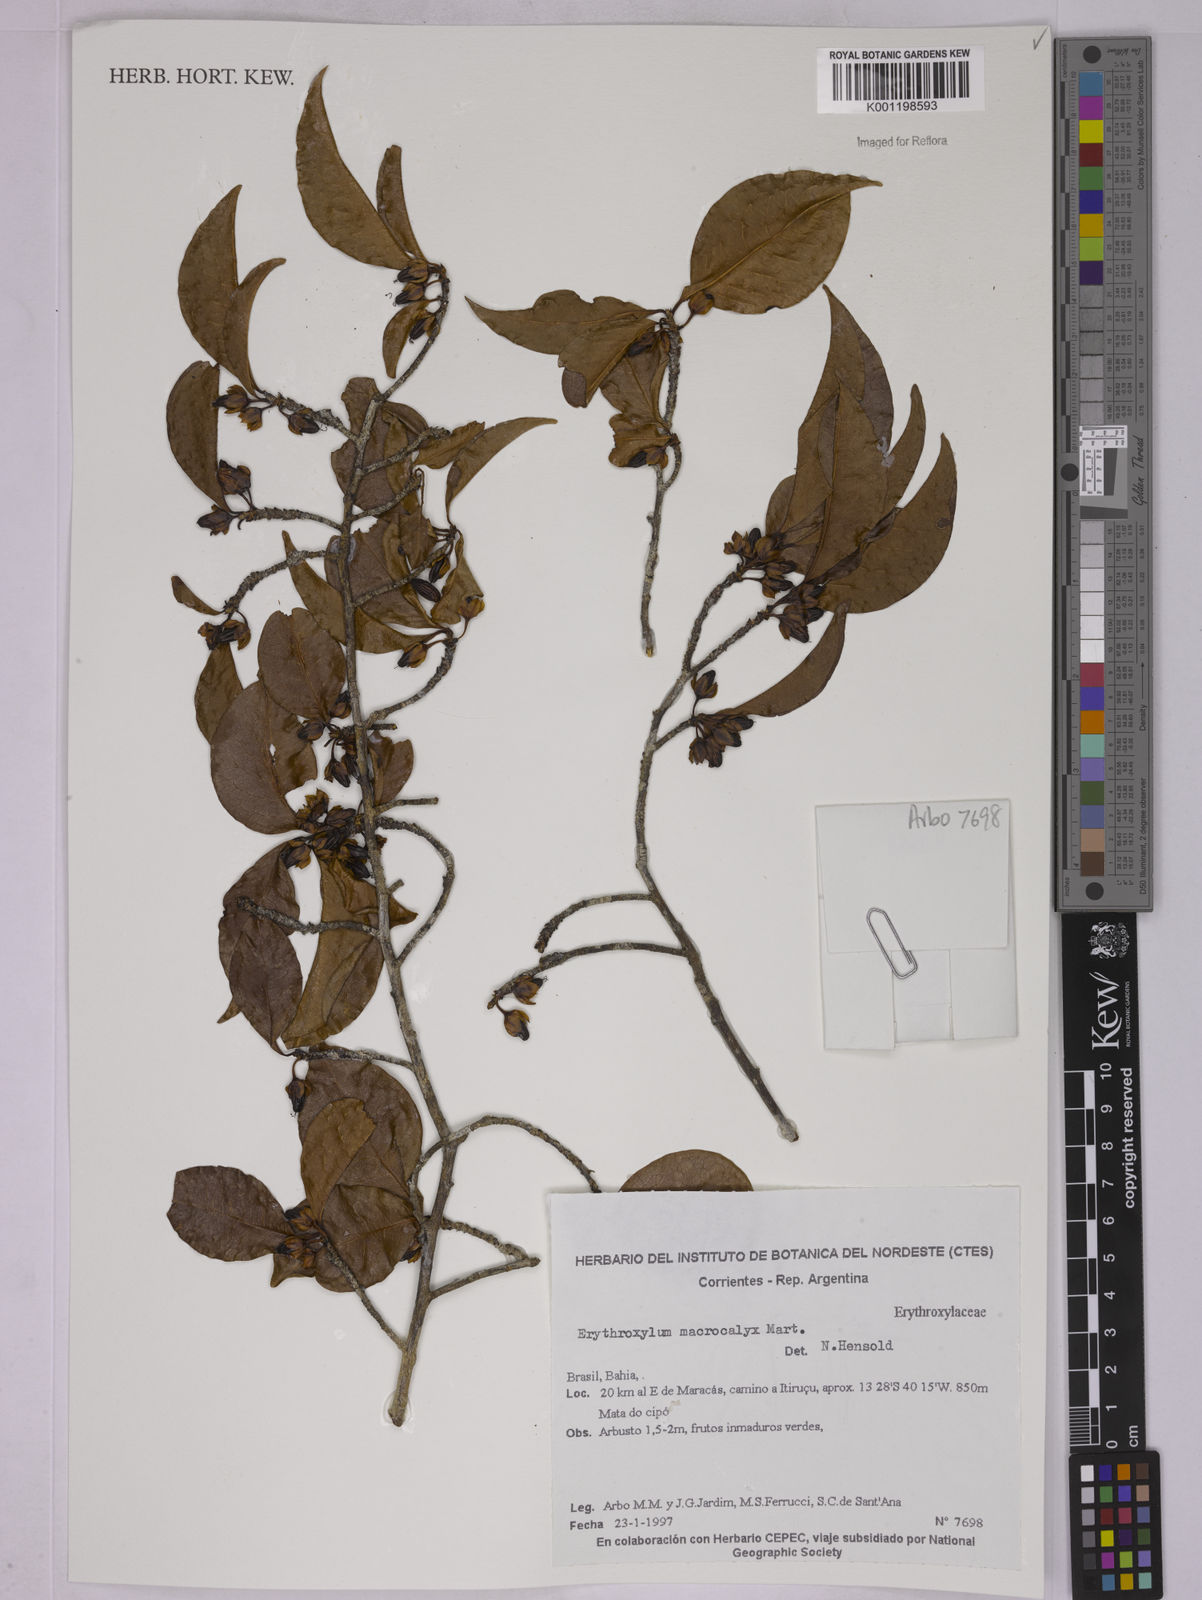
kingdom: Plantae
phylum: Tracheophyta
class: Magnoliopsida
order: Malpighiales
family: Erythroxylaceae
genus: Erythroxylum
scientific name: Erythroxylum macrocalyx
